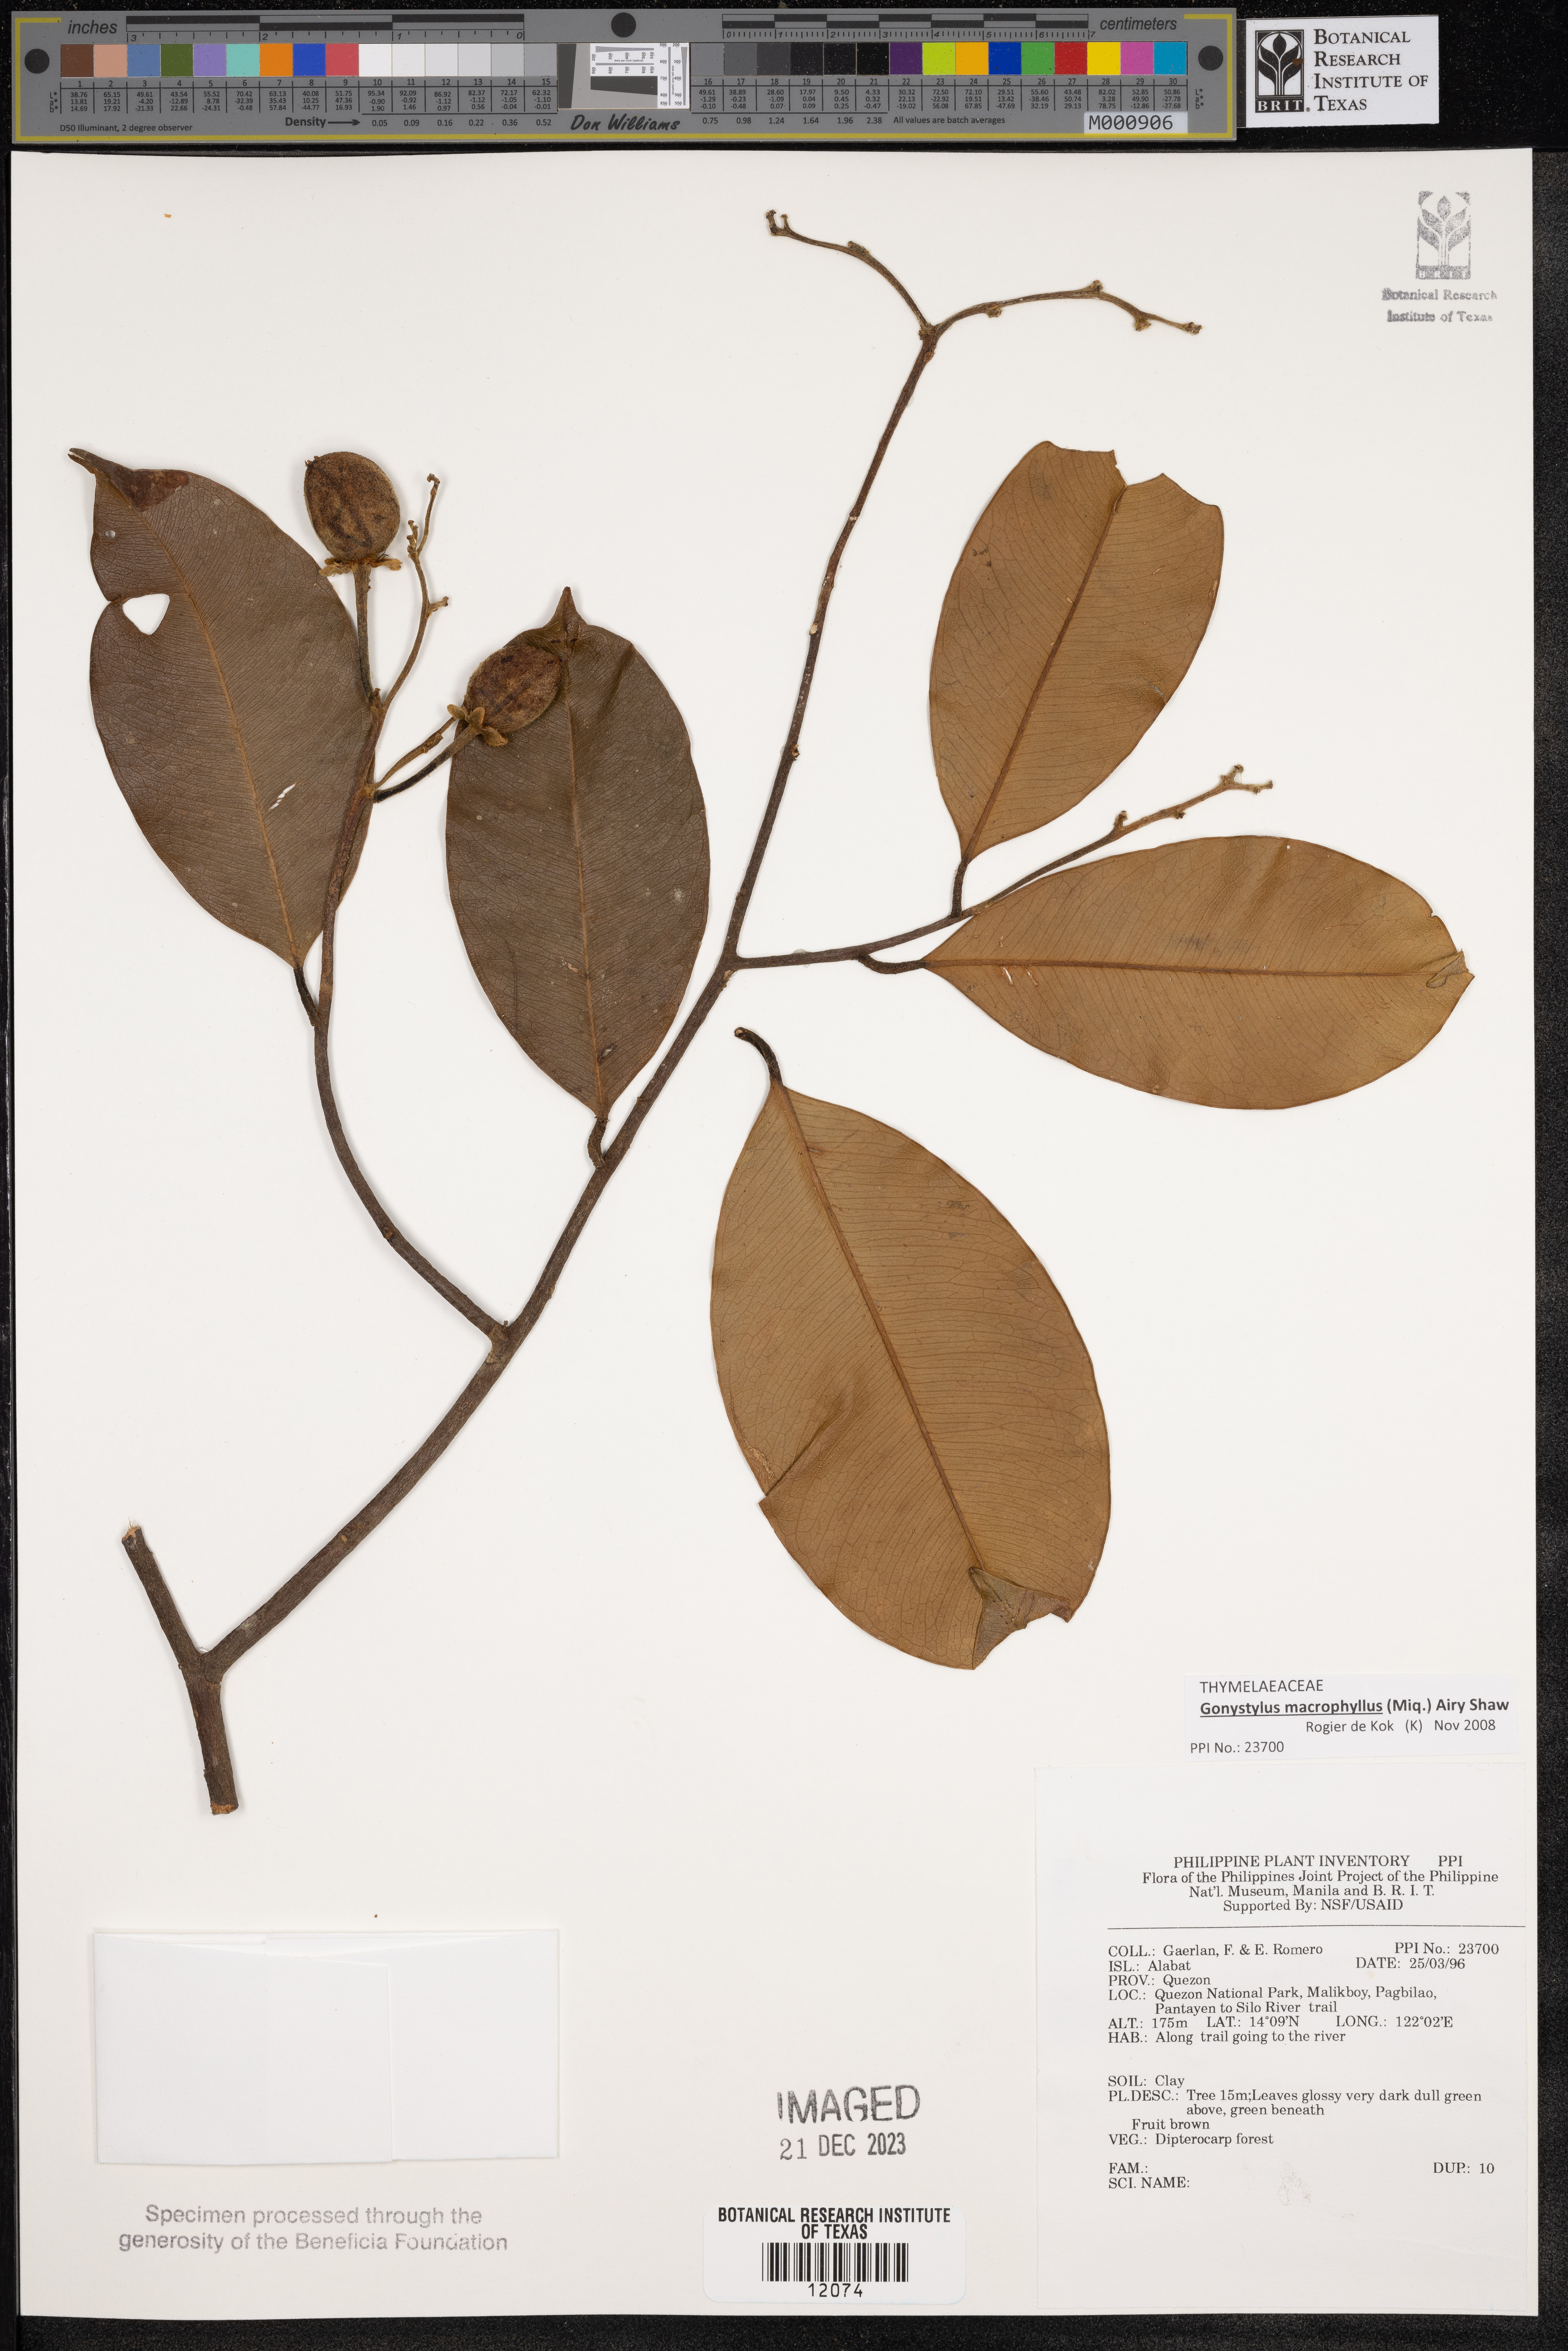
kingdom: Plantae
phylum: Tracheophyta
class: Magnoliopsida
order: Malvales
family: Thymelaeaceae
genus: Gonystylus
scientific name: Gonystylus macrophyllus
